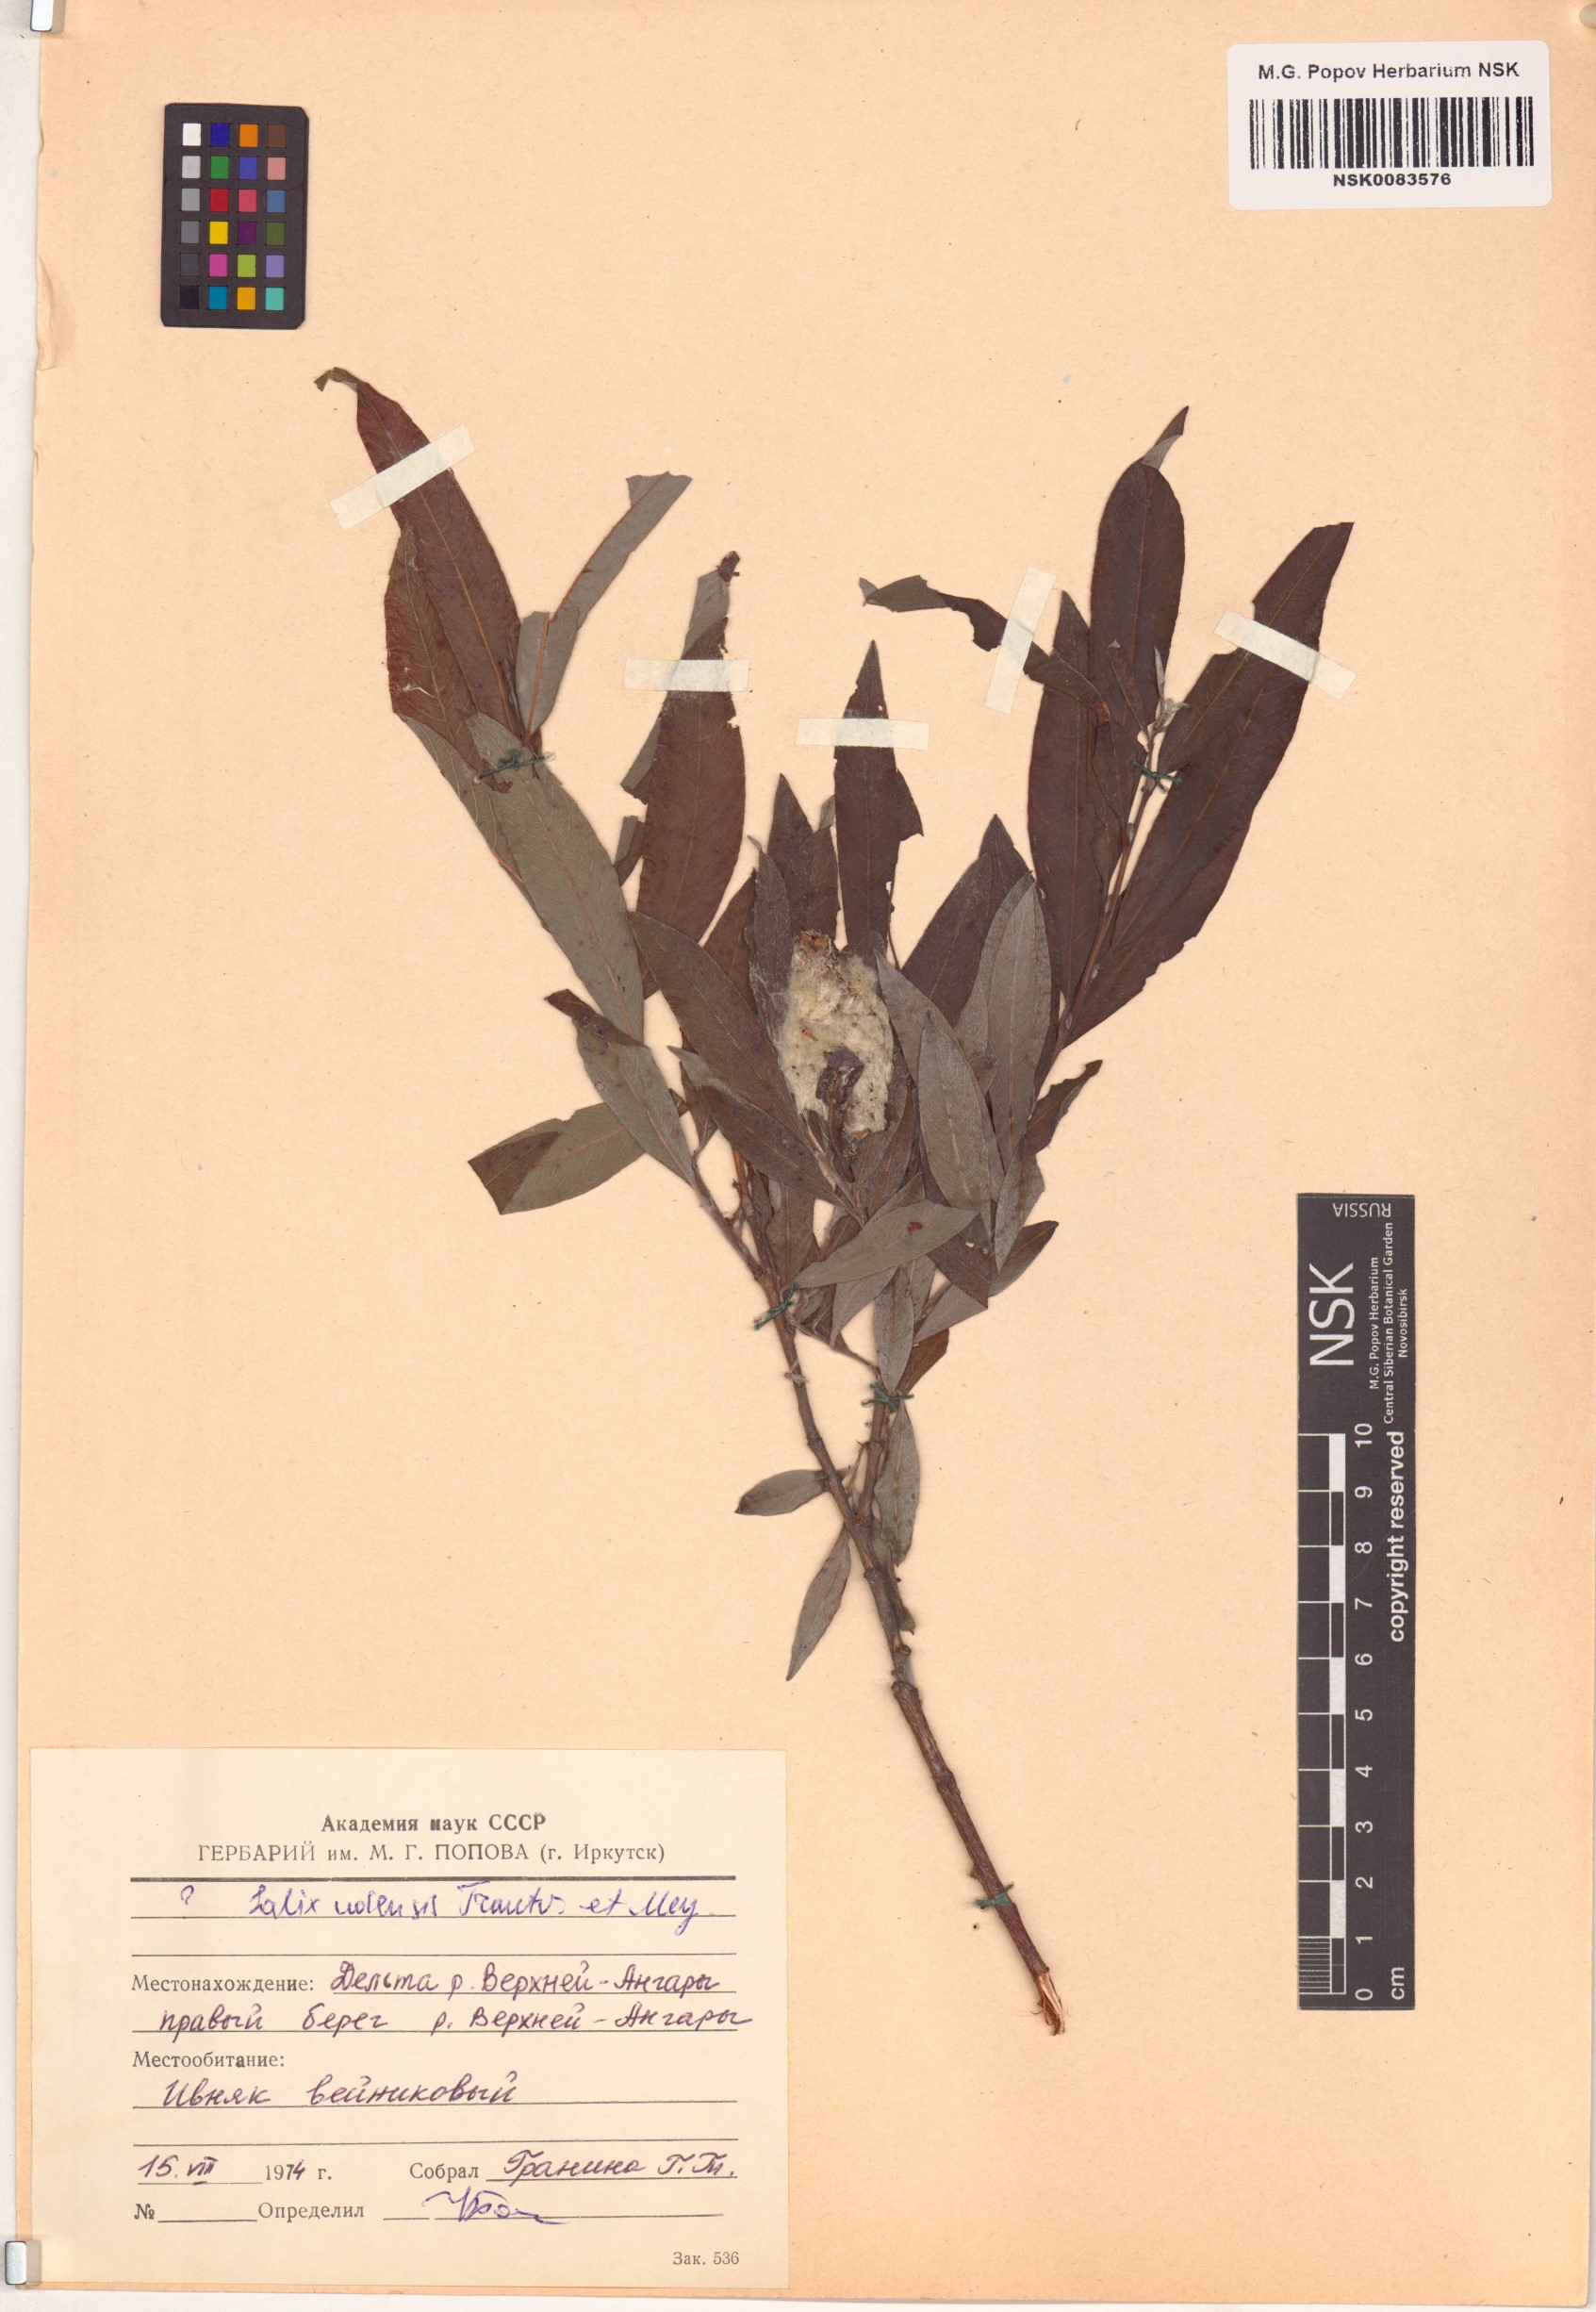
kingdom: Plantae
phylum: Tracheophyta
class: Magnoliopsida
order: Malpighiales
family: Salicaceae
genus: Salix
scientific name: Salix udensis
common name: Sachalin willow
